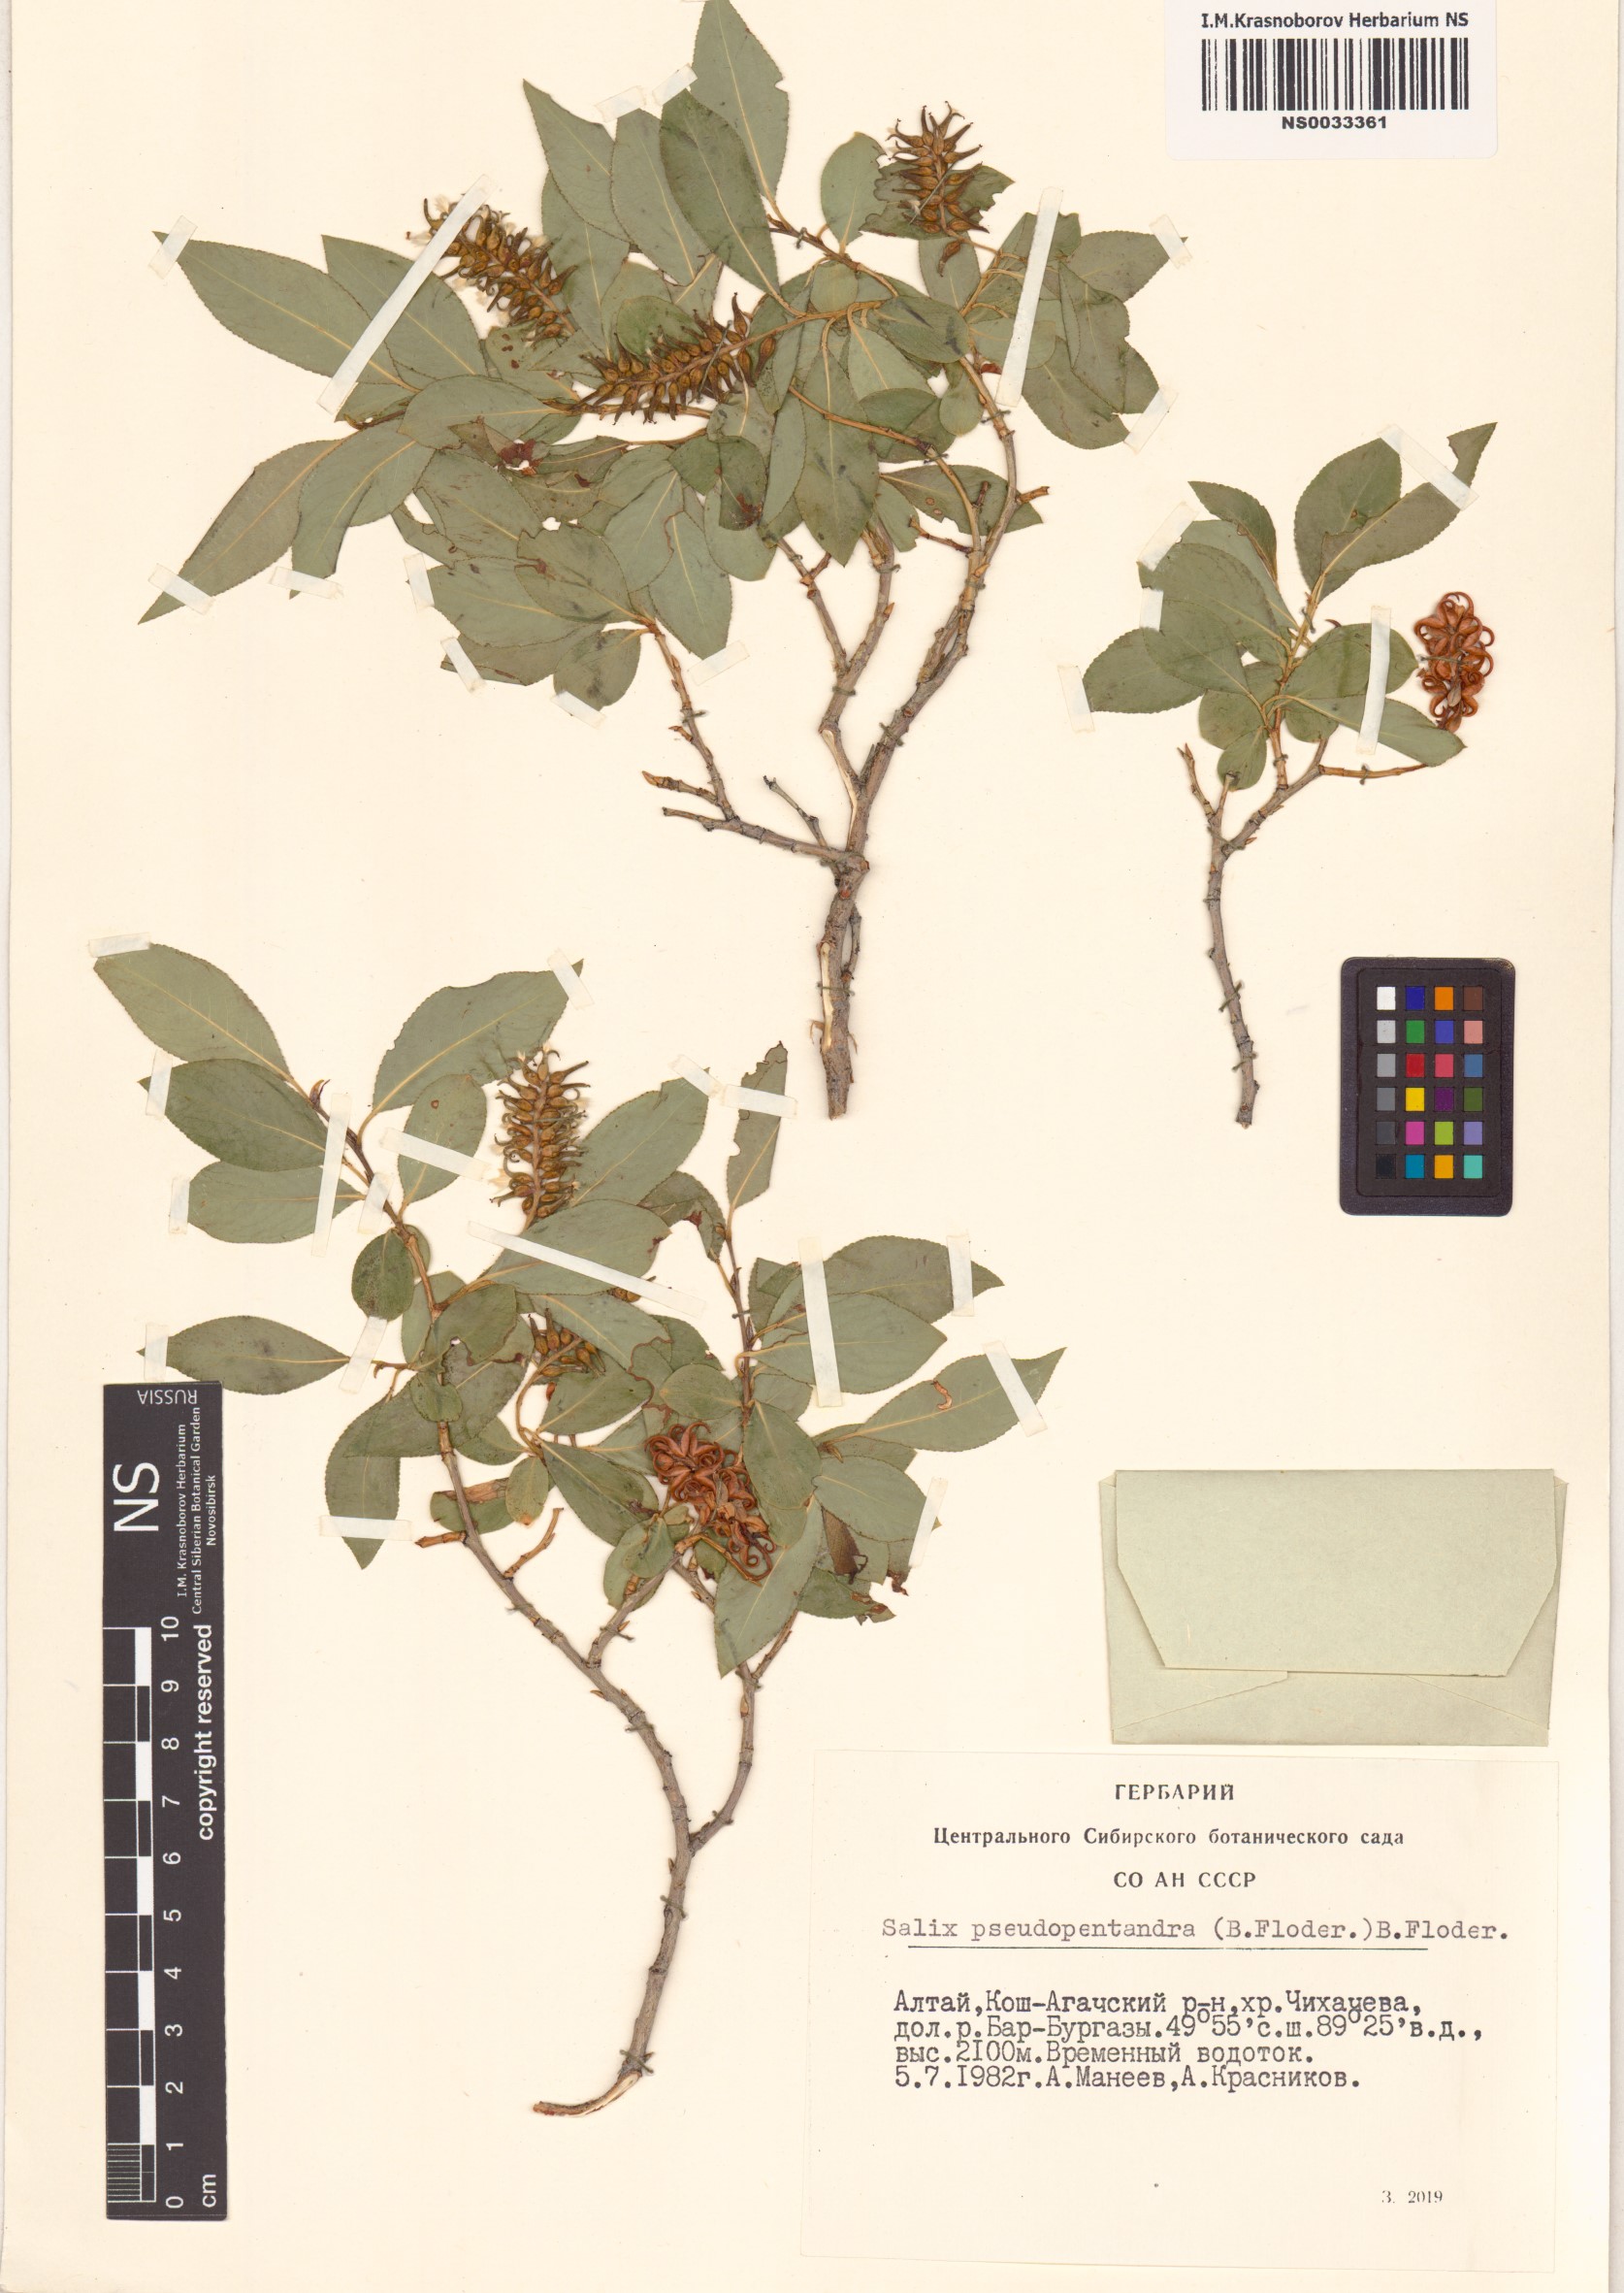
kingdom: Plantae
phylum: Tracheophyta
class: Magnoliopsida
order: Malpighiales
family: Salicaceae
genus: Salix
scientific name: Salix pseudopentandra
